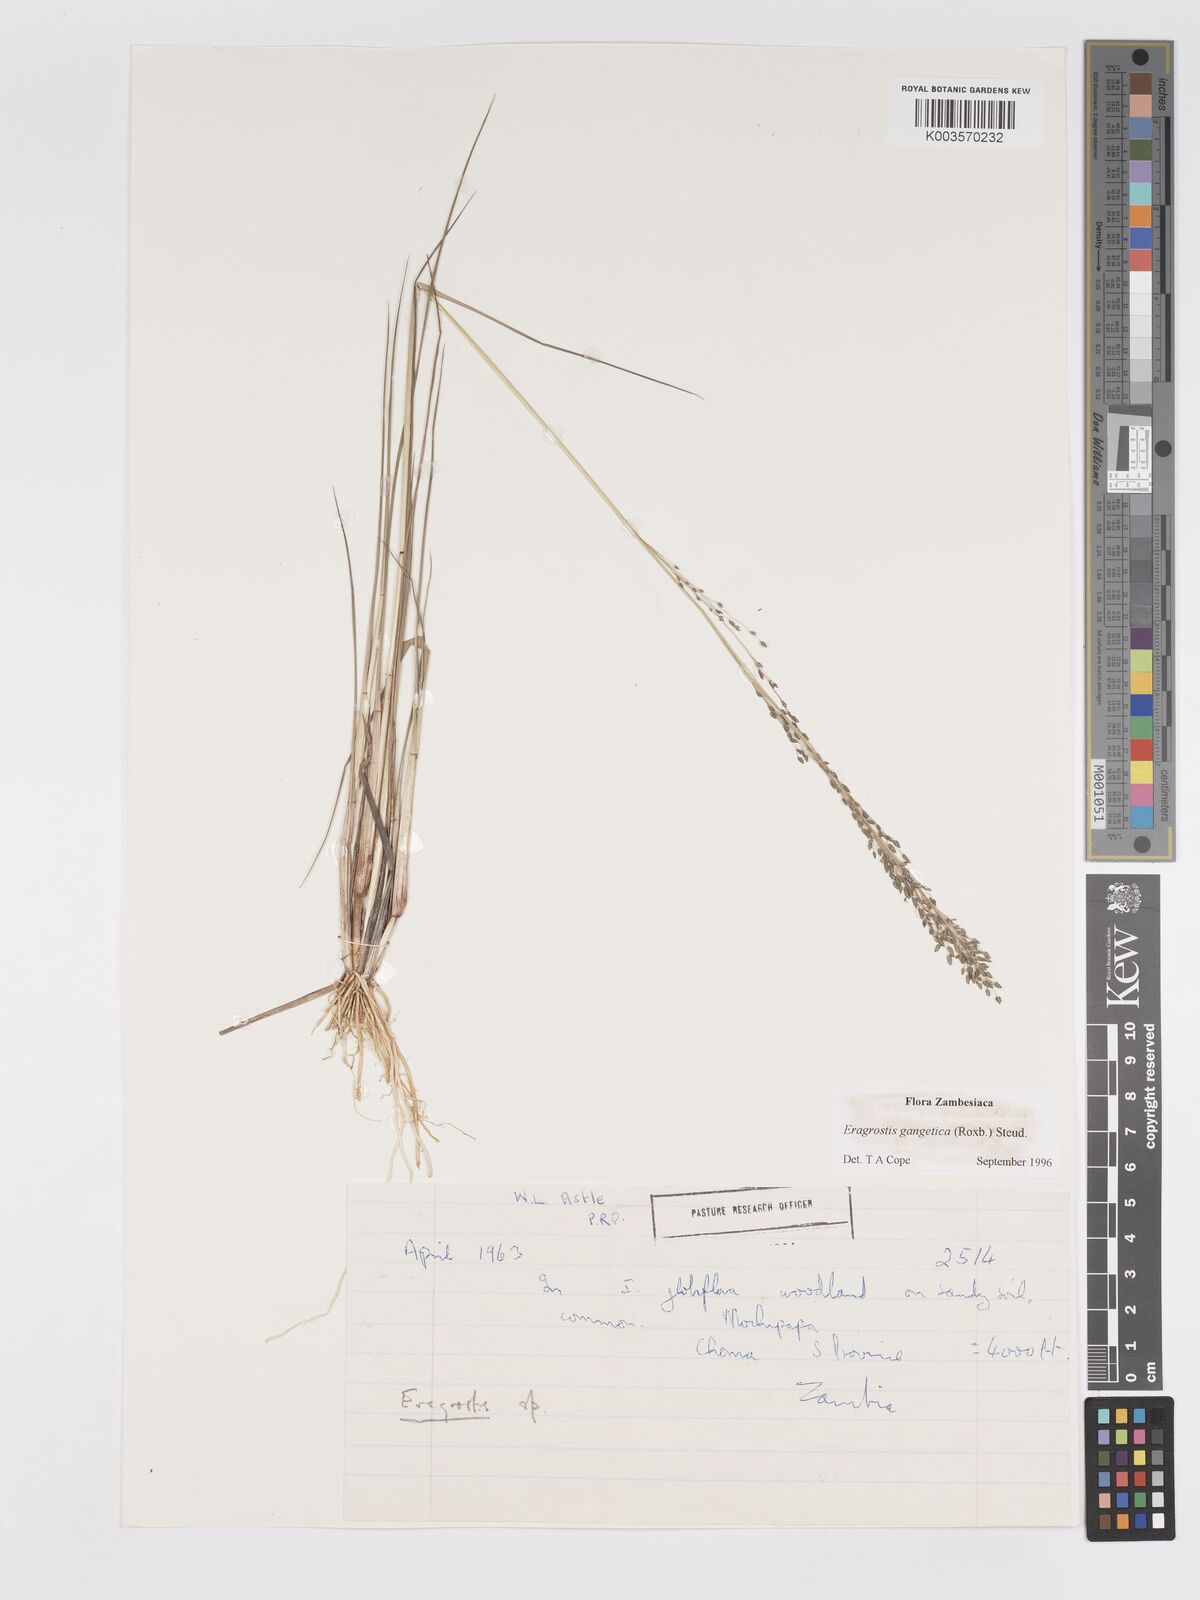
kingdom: Plantae
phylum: Tracheophyta
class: Liliopsida
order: Poales
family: Poaceae
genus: Eragrostis
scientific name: Eragrostis gangetica
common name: Slimflower lovegrass
